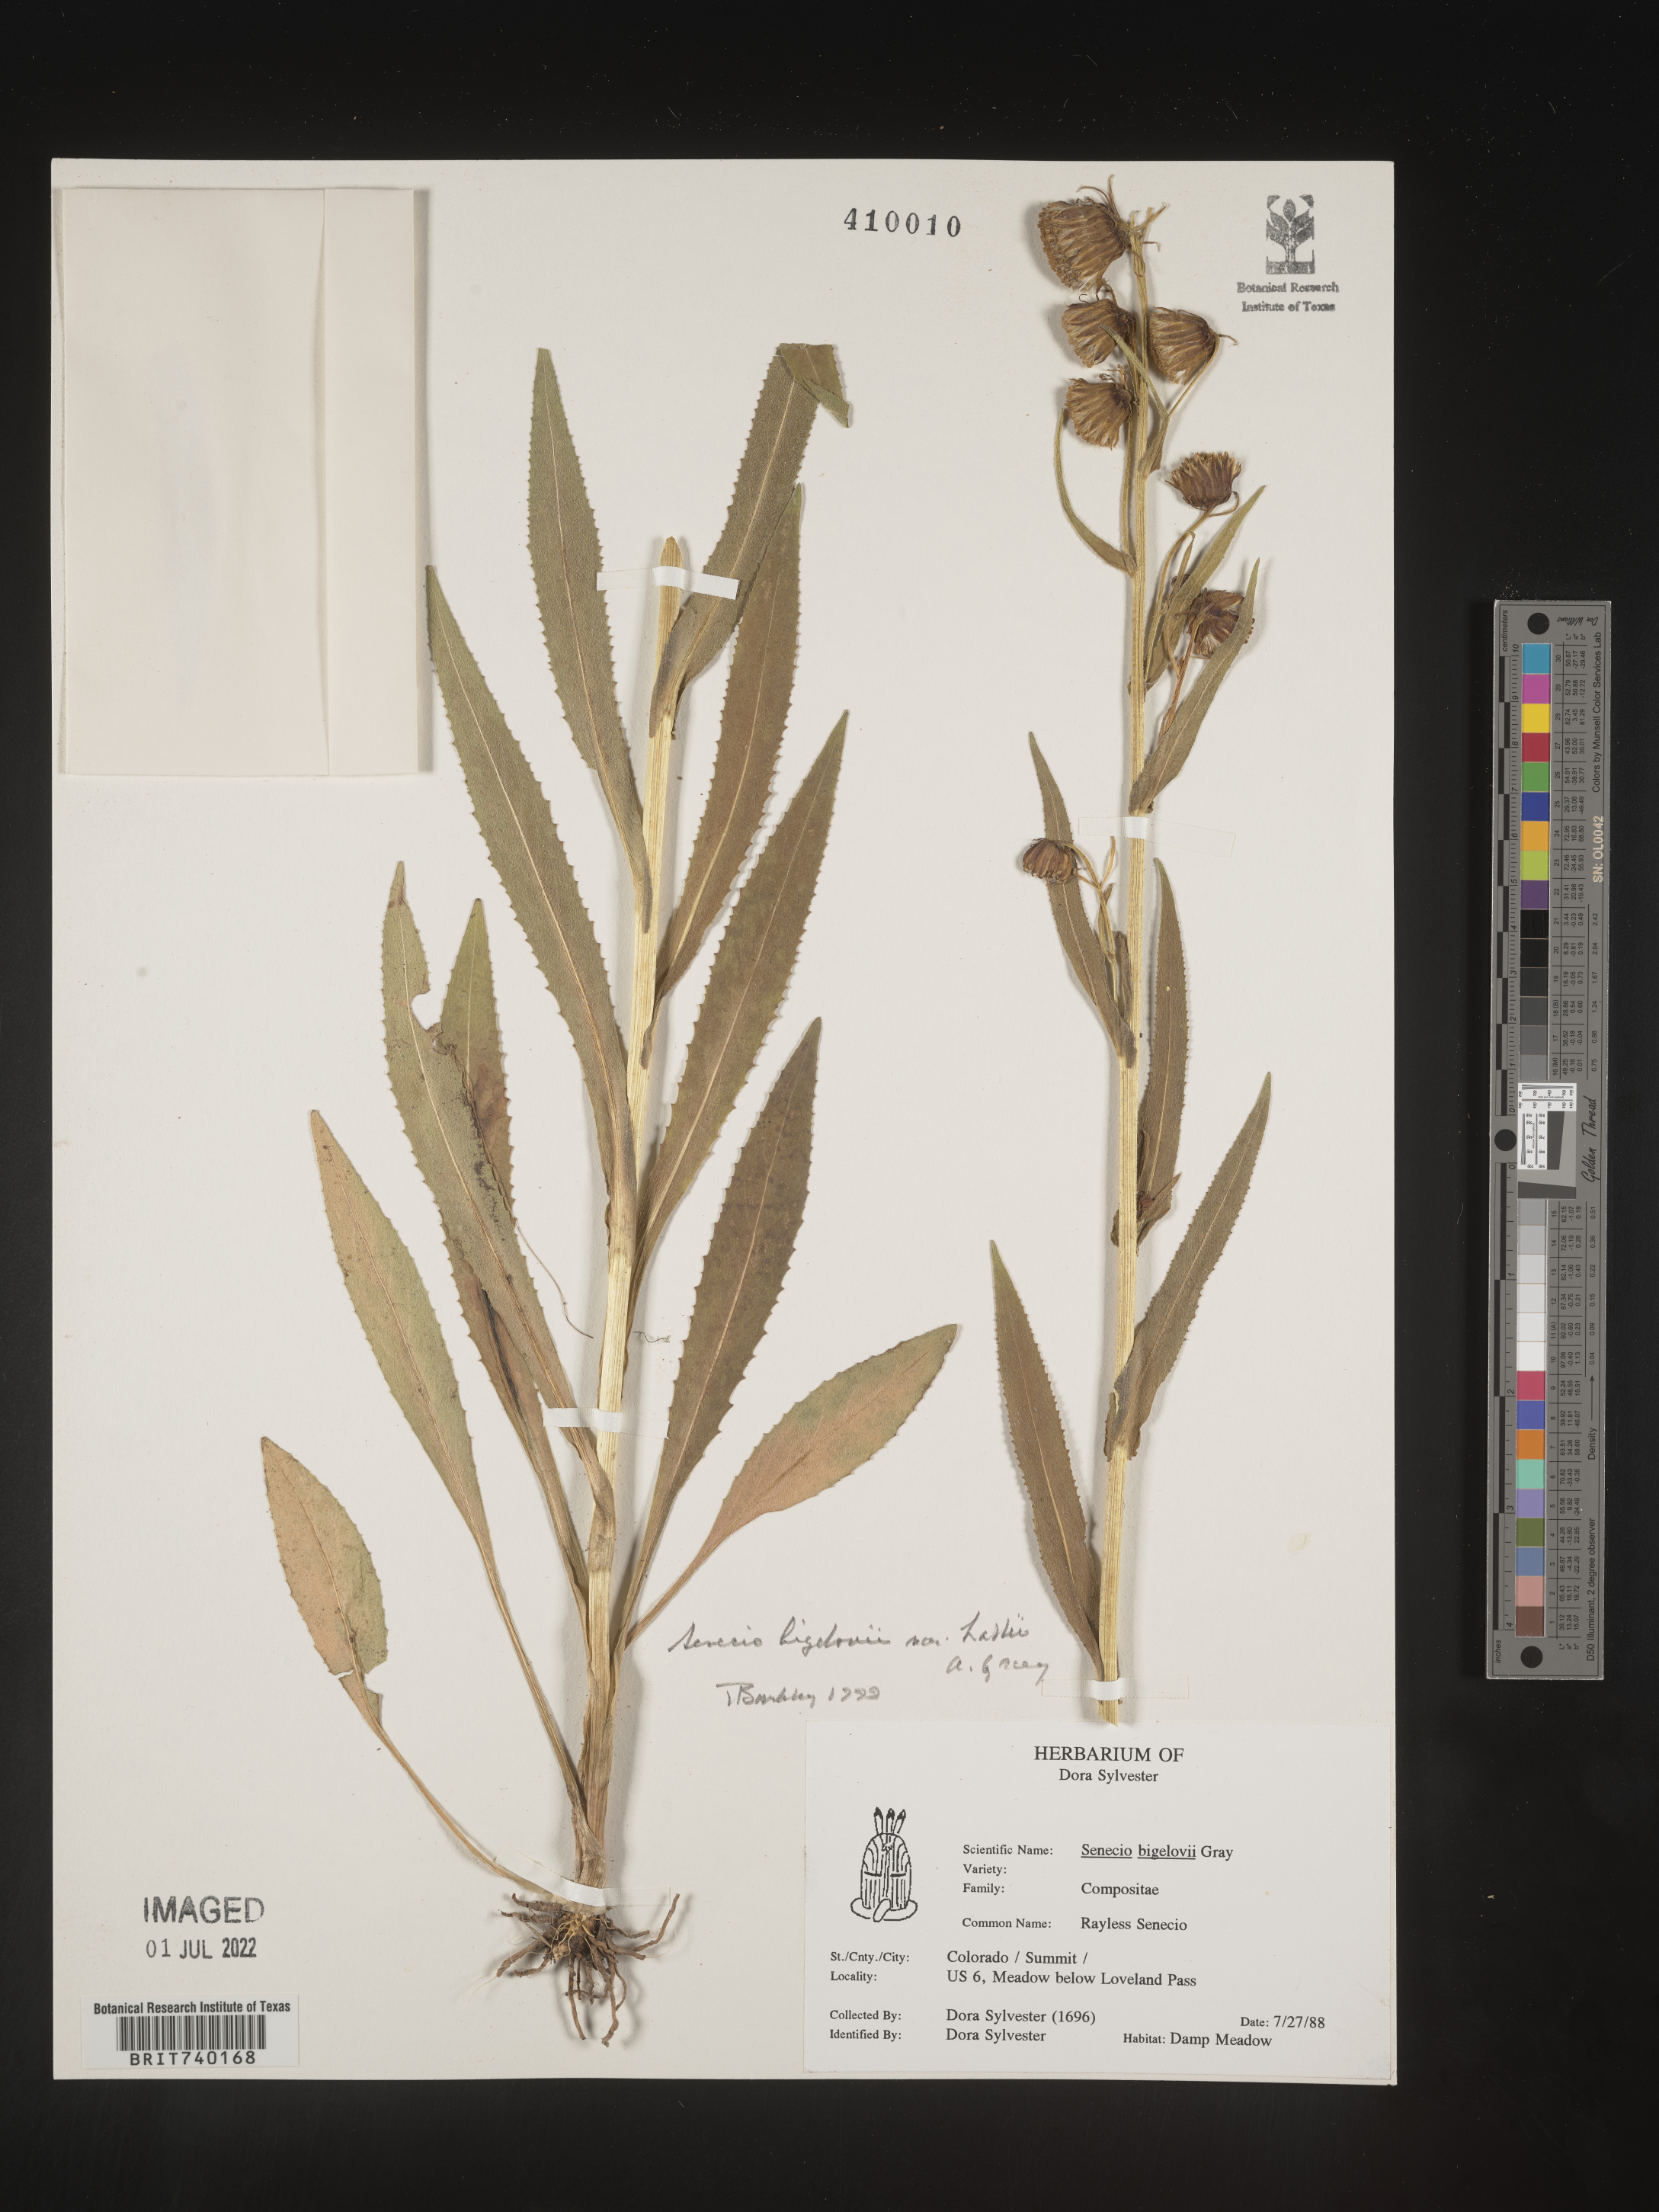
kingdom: Plantae
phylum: Tracheophyta
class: Magnoliopsida
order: Asterales
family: Asteraceae
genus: Senecio
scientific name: Senecio bigelovii
